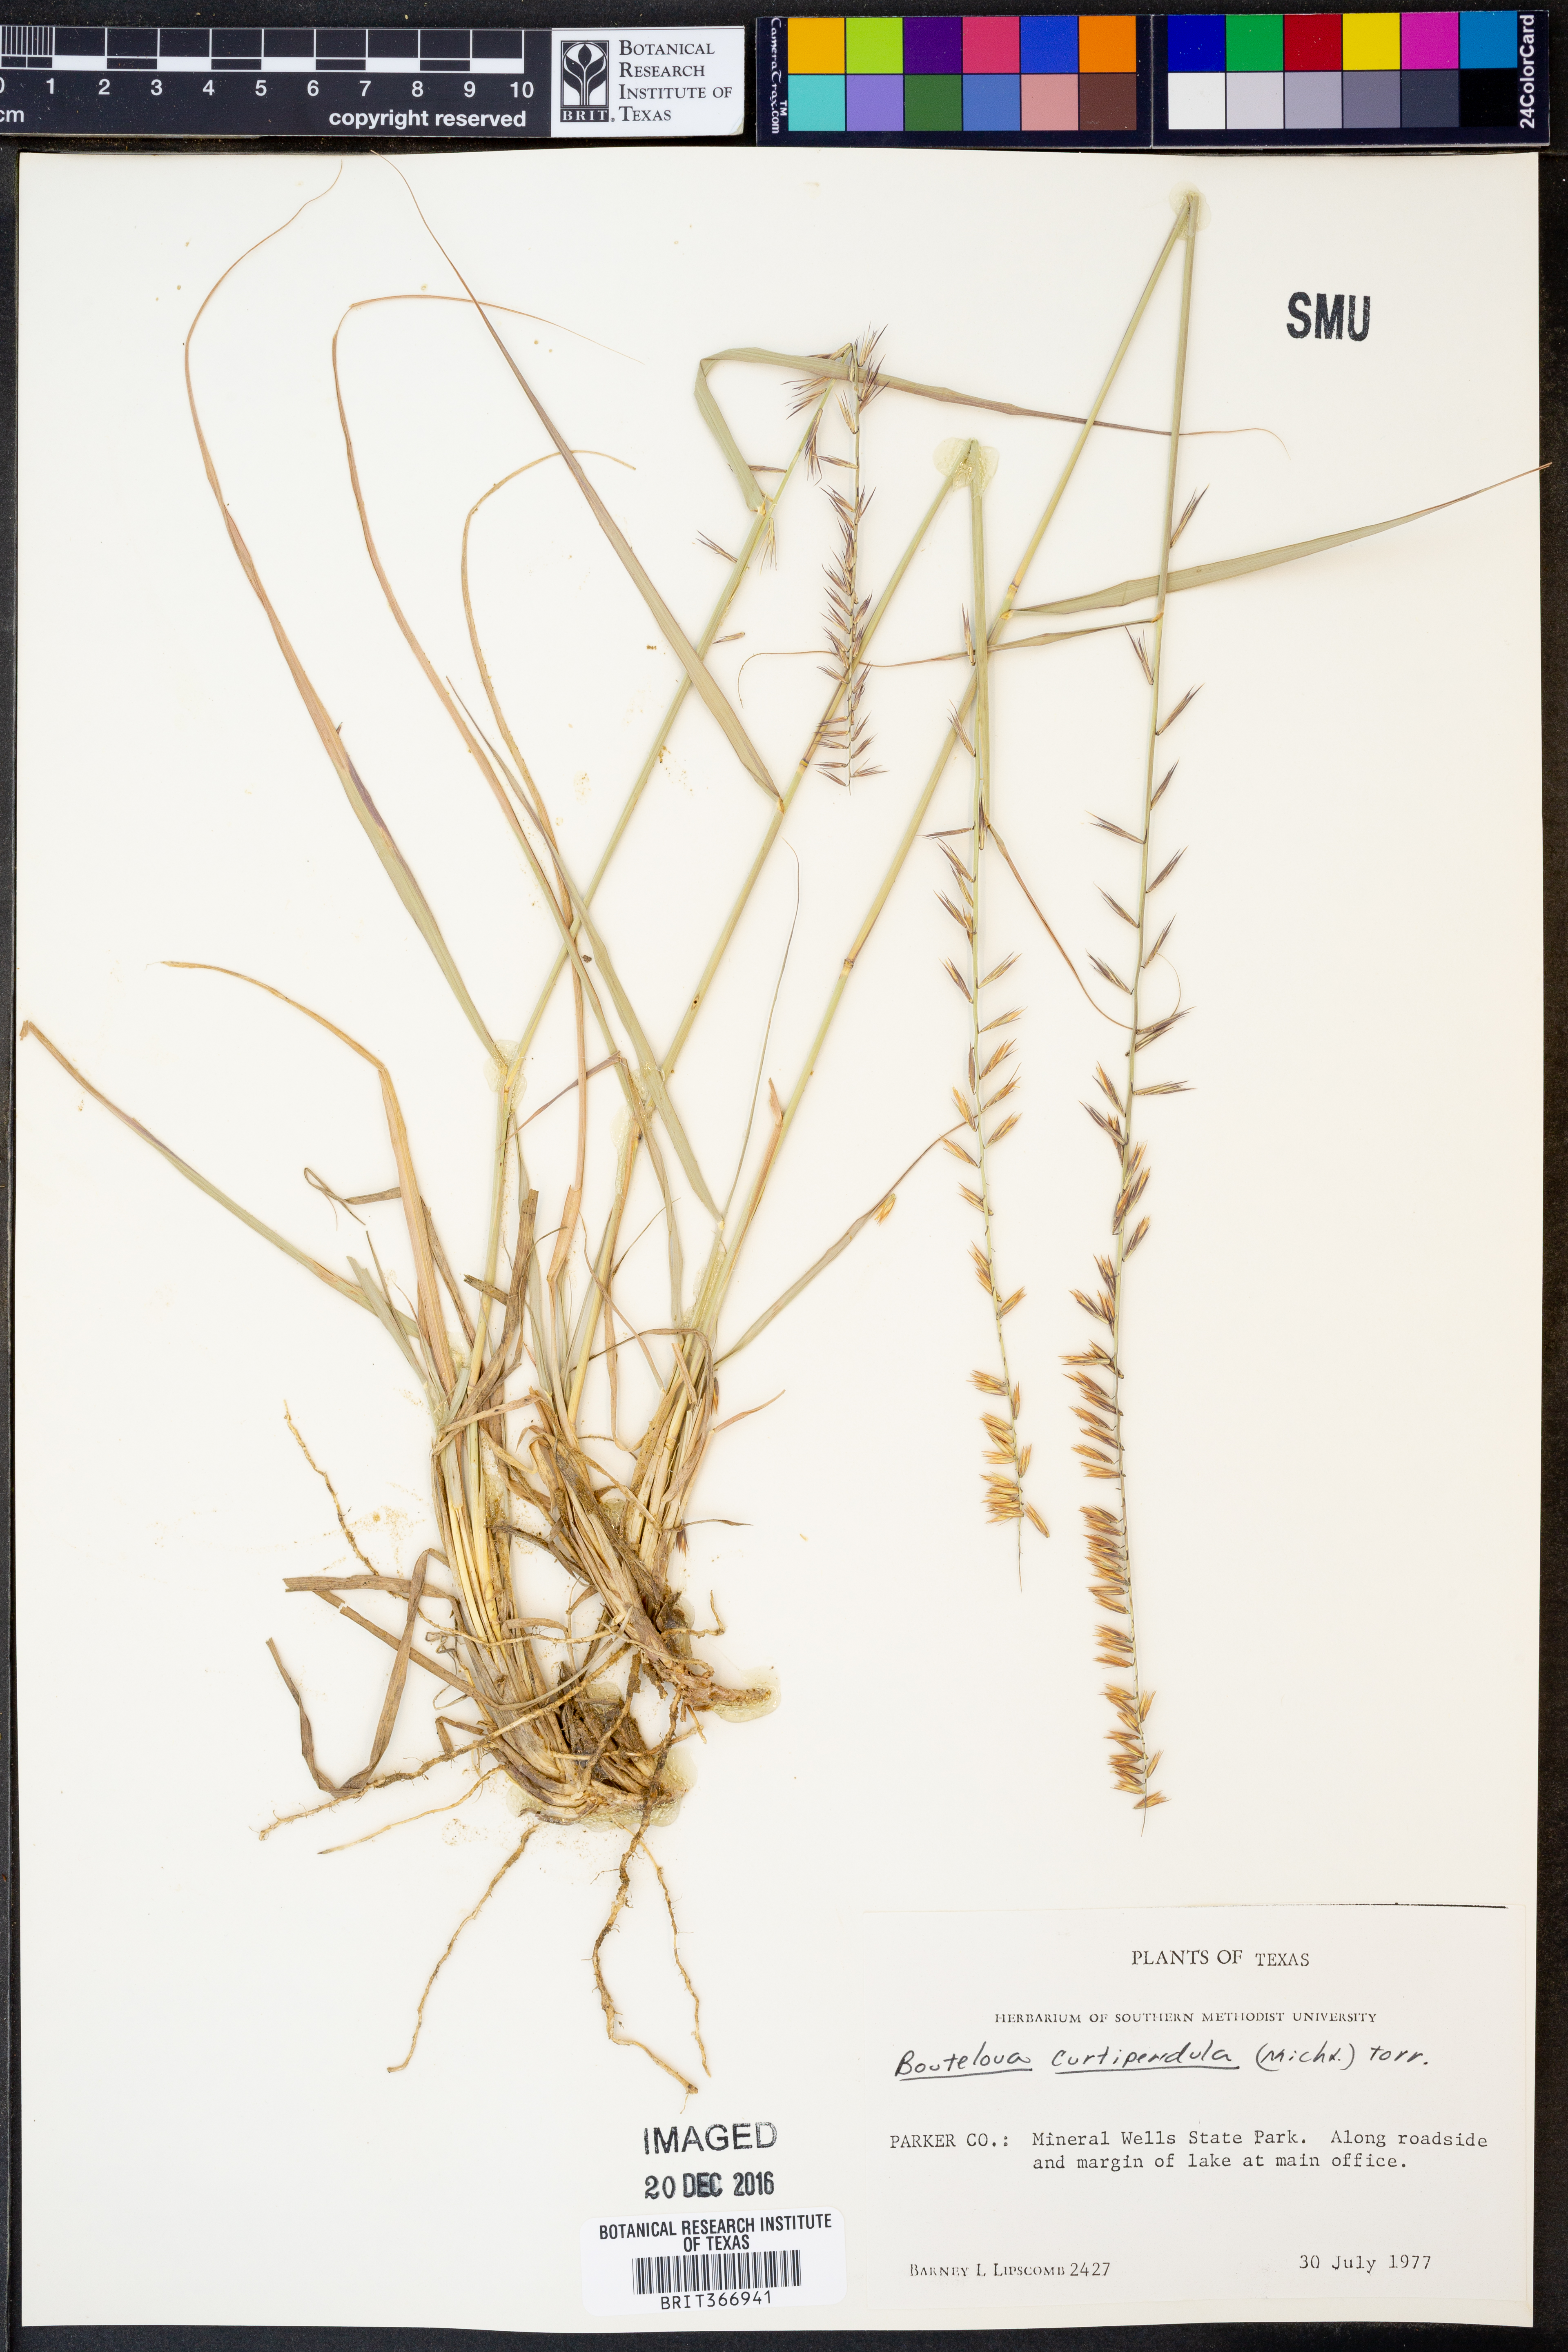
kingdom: Plantae
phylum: Tracheophyta
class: Liliopsida
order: Poales
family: Poaceae
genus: Bouteloua
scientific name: Bouteloua curtipendula
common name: Side-oats grama
